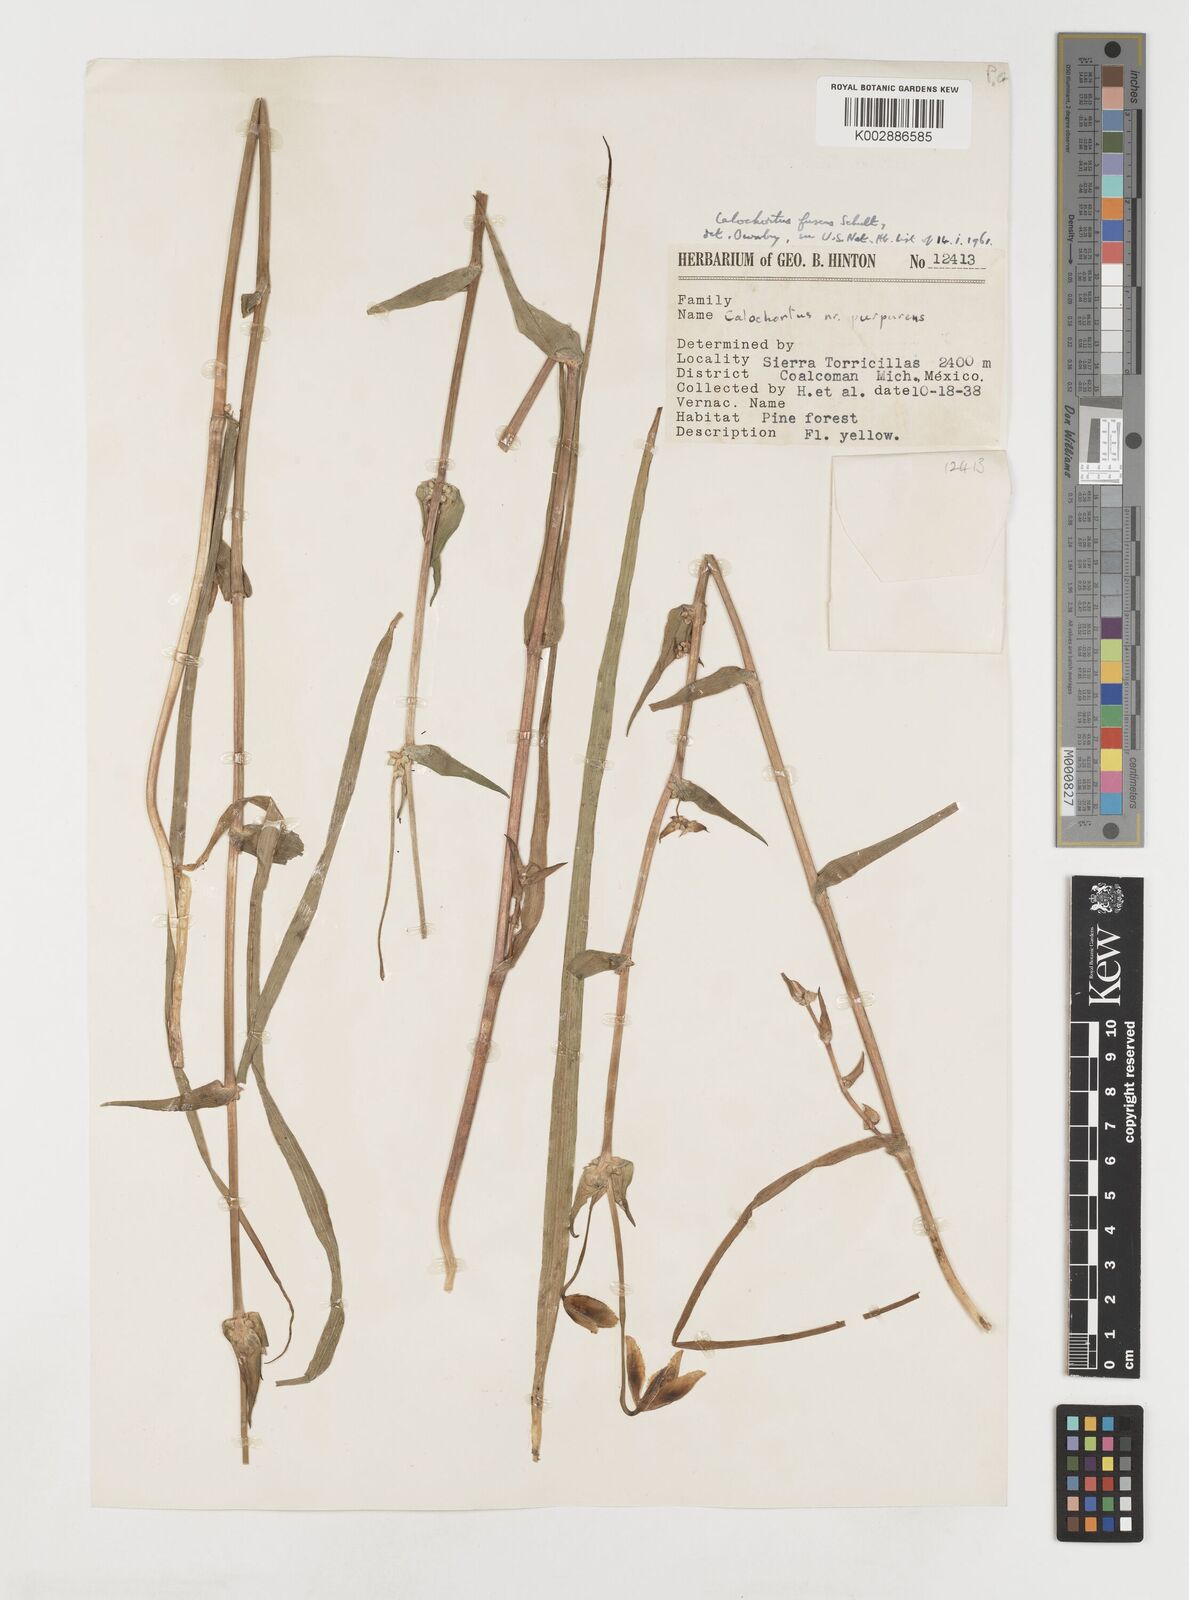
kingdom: Plantae
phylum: Tracheophyta
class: Liliopsida
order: Liliales
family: Liliaceae
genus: Calochortus
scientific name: Calochortus fuscus
